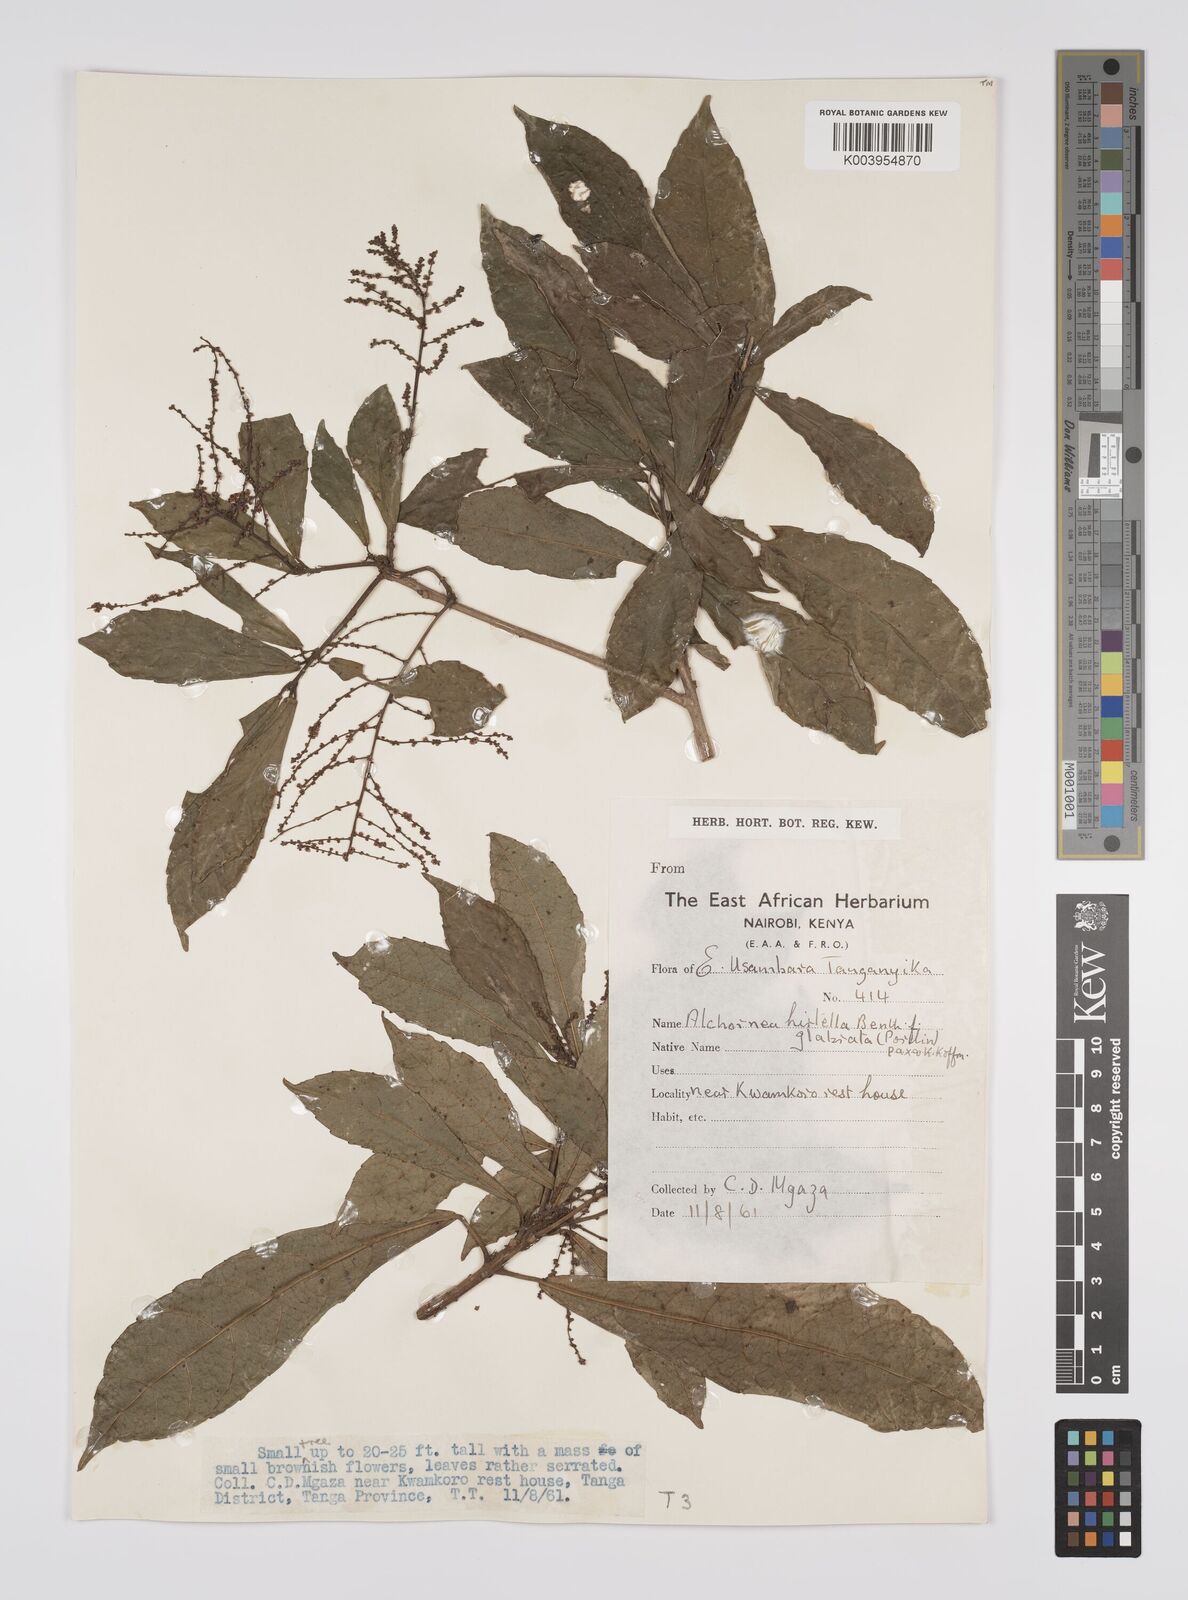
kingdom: Plantae
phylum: Tracheophyta
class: Magnoliopsida
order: Malpighiales
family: Euphorbiaceae
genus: Alchornea
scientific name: Alchornea hirtella
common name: Forest bead-string
